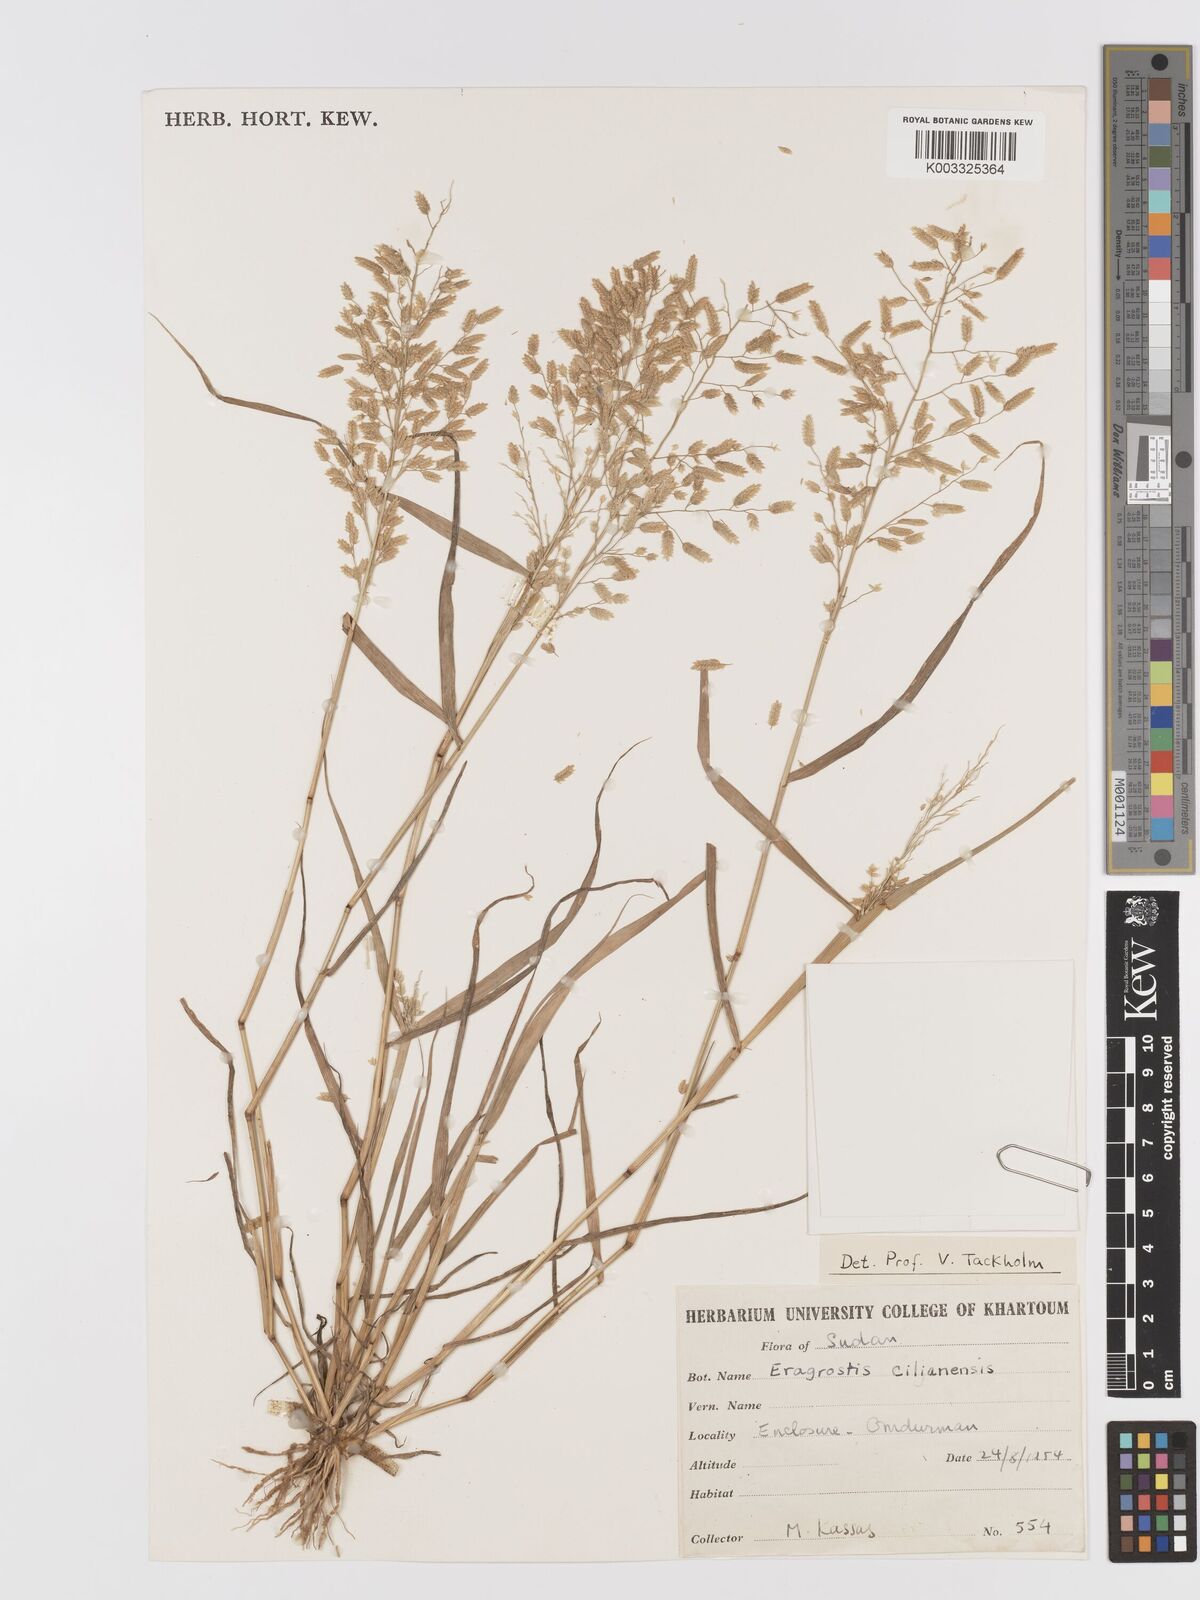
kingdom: Plantae
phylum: Tracheophyta
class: Liliopsida
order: Poales
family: Poaceae
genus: Eragrostis
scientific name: Eragrostis cilianensis
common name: Stinkgrass
